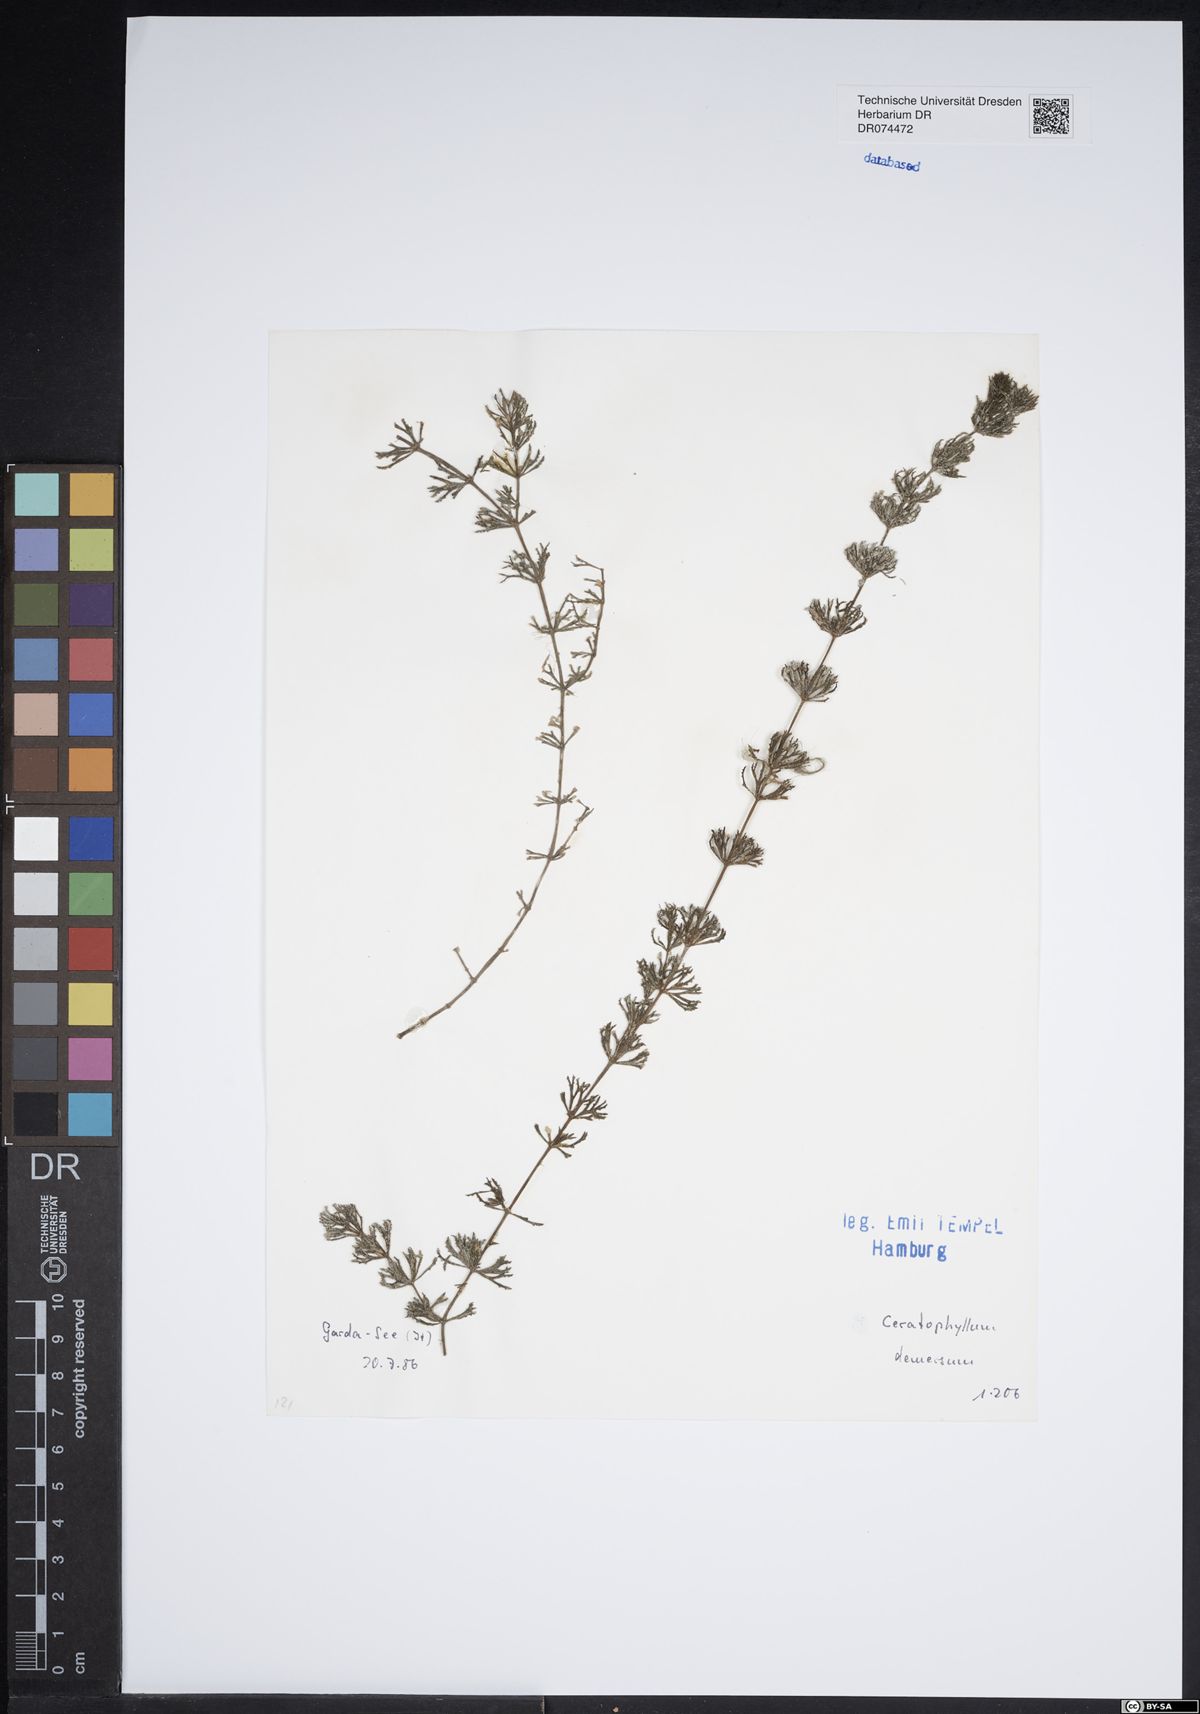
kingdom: Plantae
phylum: Tracheophyta
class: Magnoliopsida
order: Ceratophyllales
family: Ceratophyllaceae
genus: Ceratophyllum
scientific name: Ceratophyllum demersum
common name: Rigid hornwort
